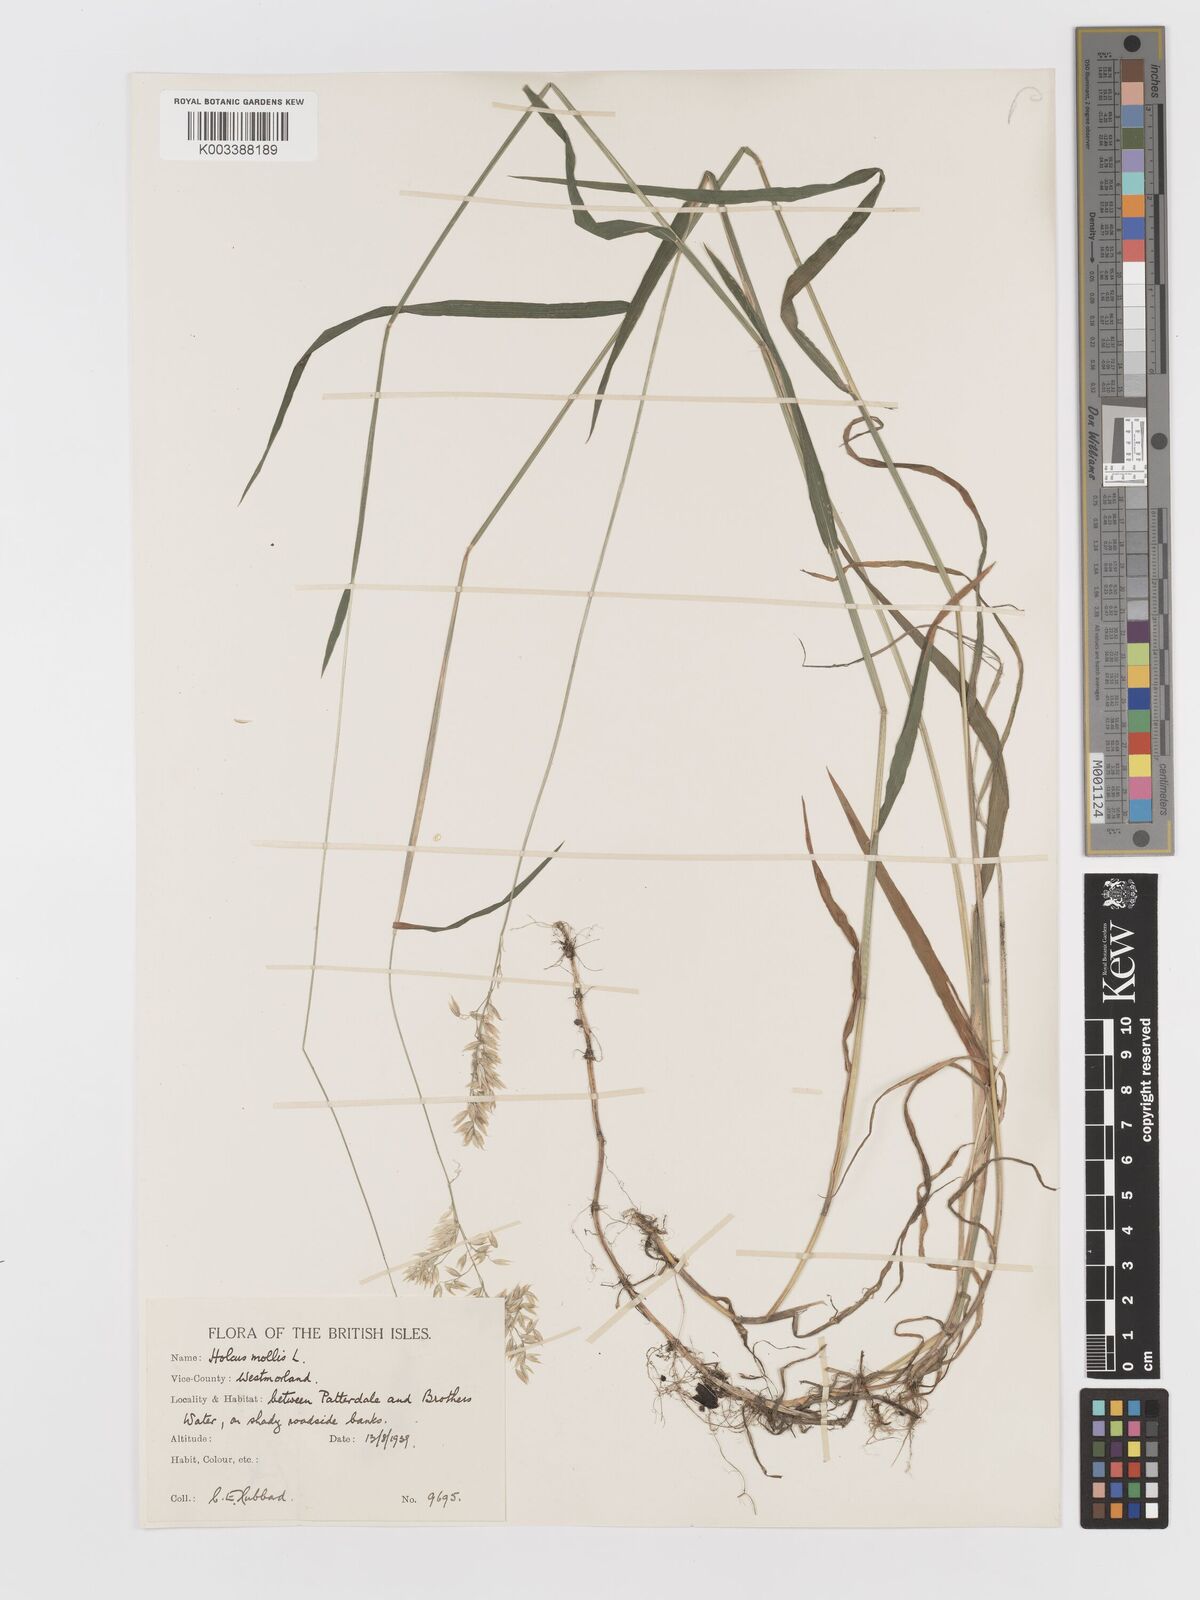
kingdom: Plantae
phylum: Tracheophyta
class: Liliopsida
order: Poales
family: Poaceae
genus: Holcus
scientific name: Holcus hierrensis
